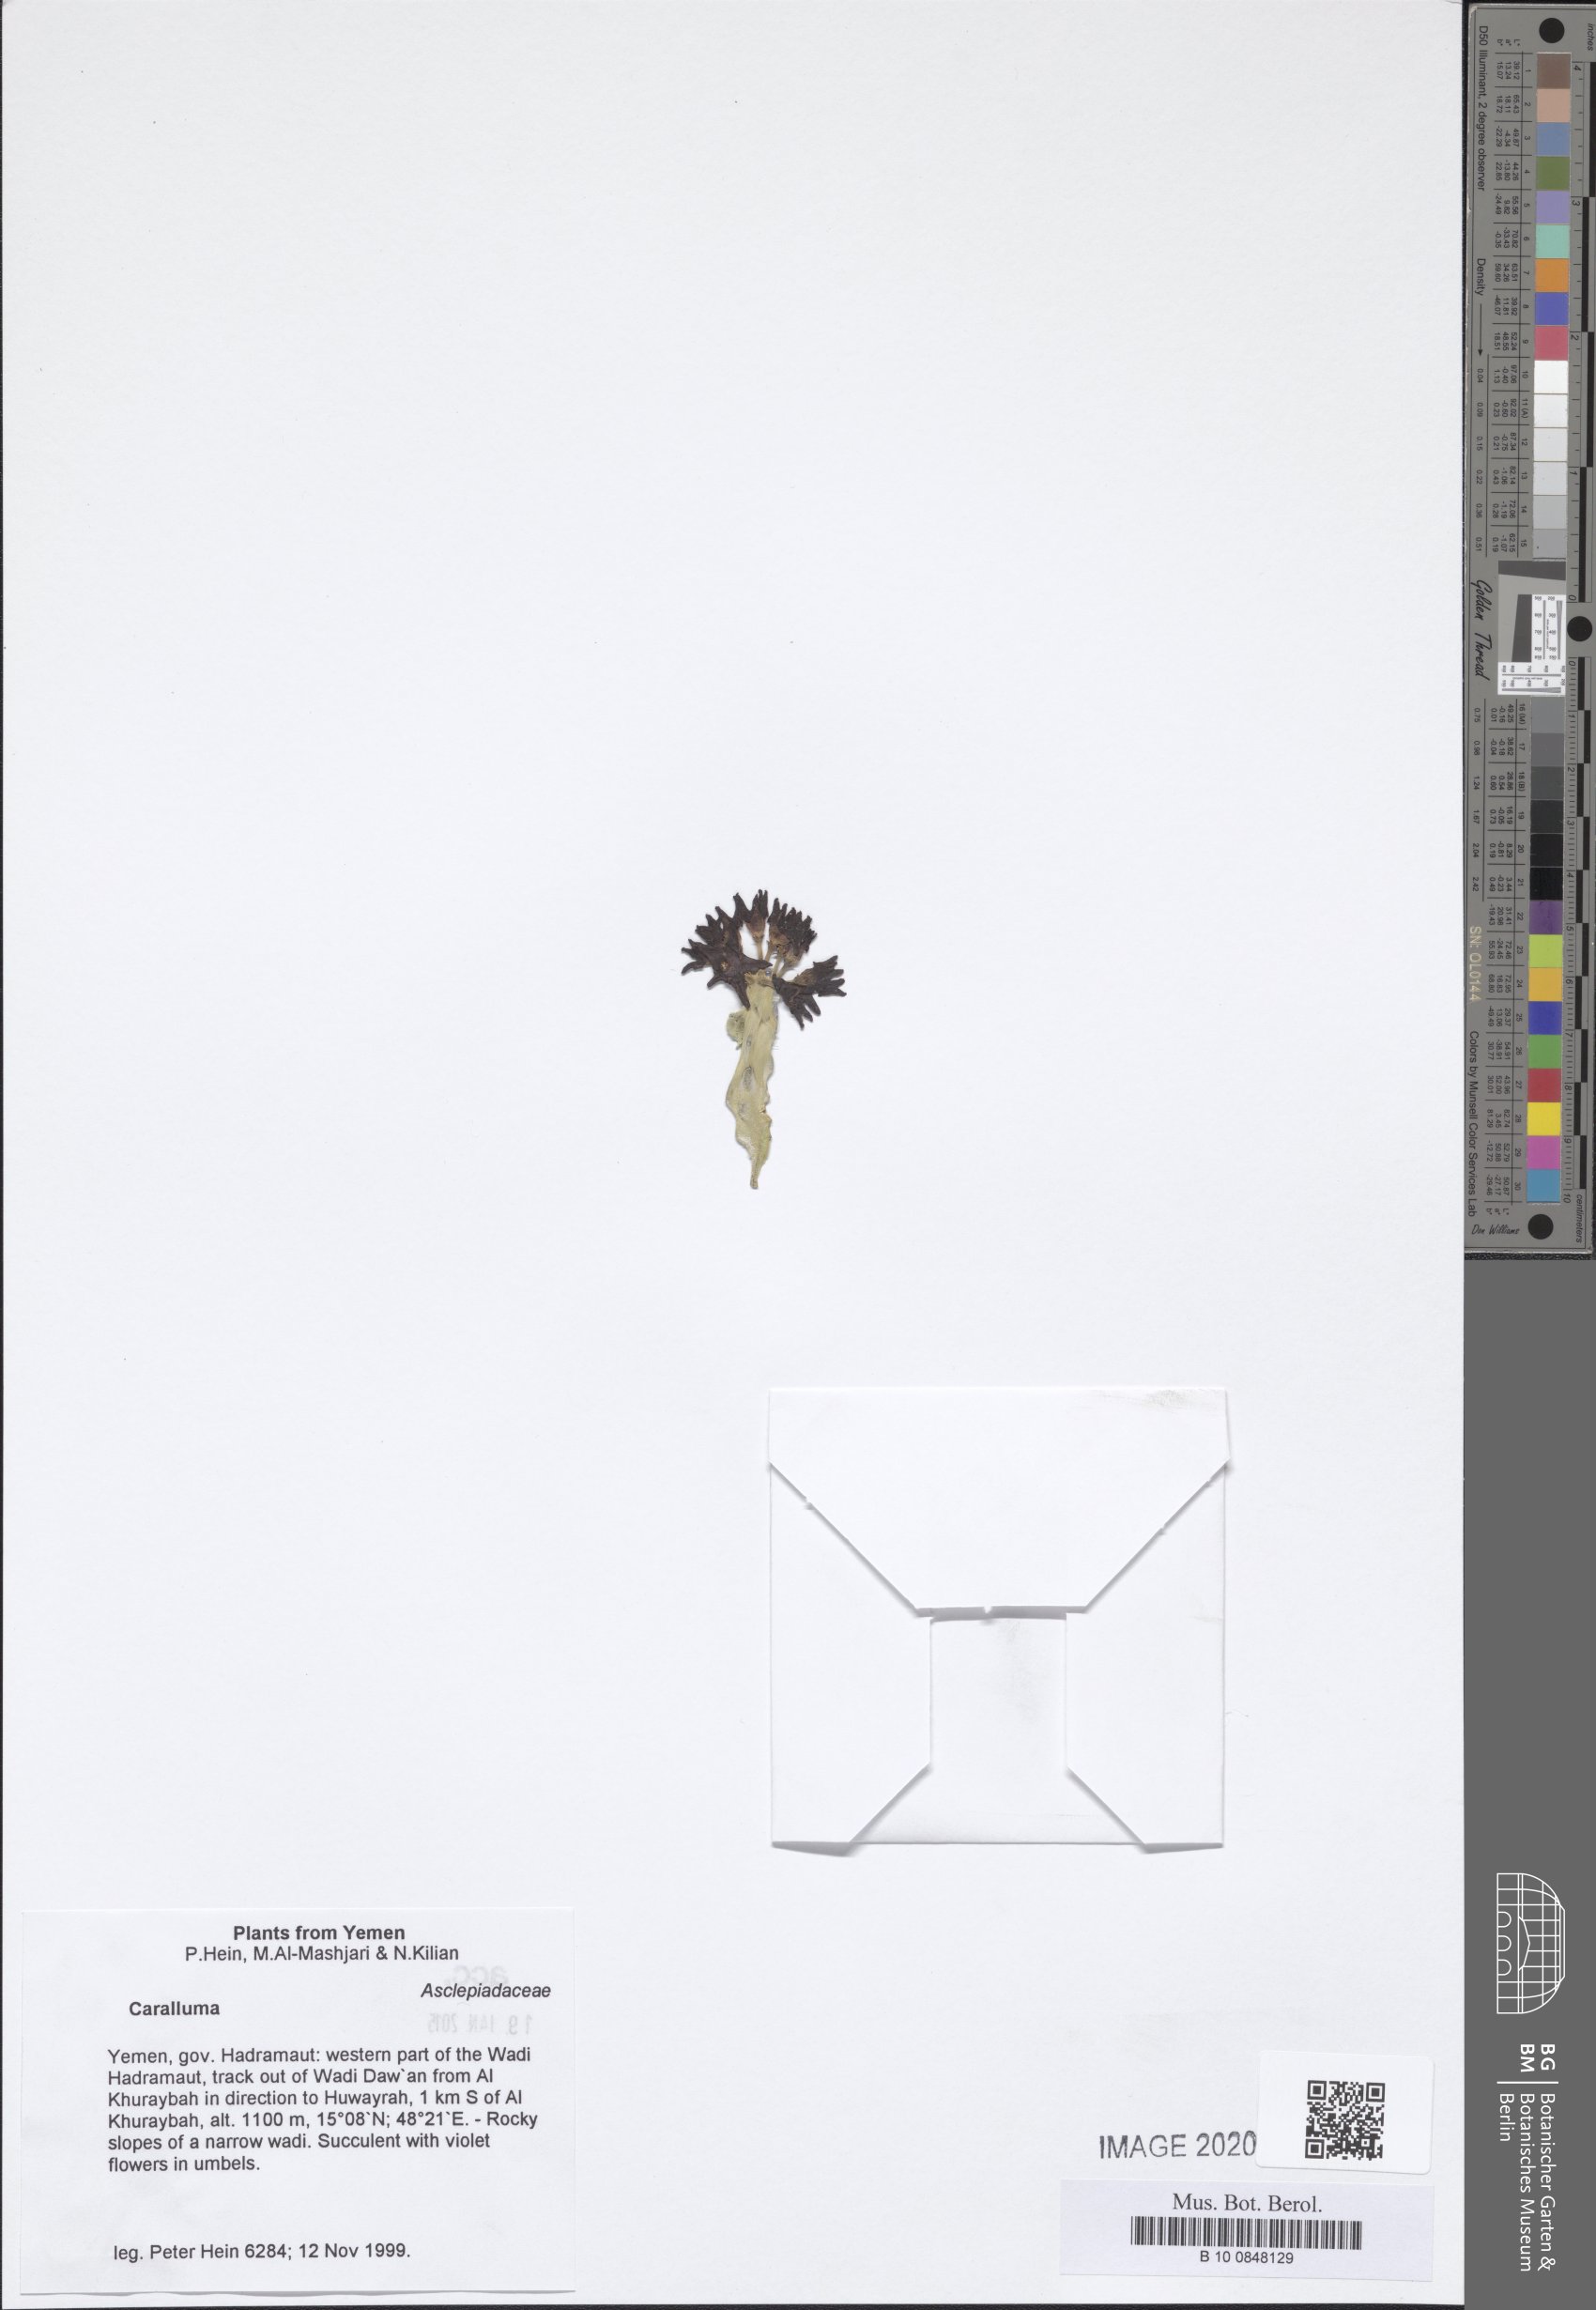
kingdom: Plantae
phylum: Tracheophyta
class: Magnoliopsida
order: Gentianales
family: Apocynaceae
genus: Ceropegia
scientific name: Ceropegia awdeliana
